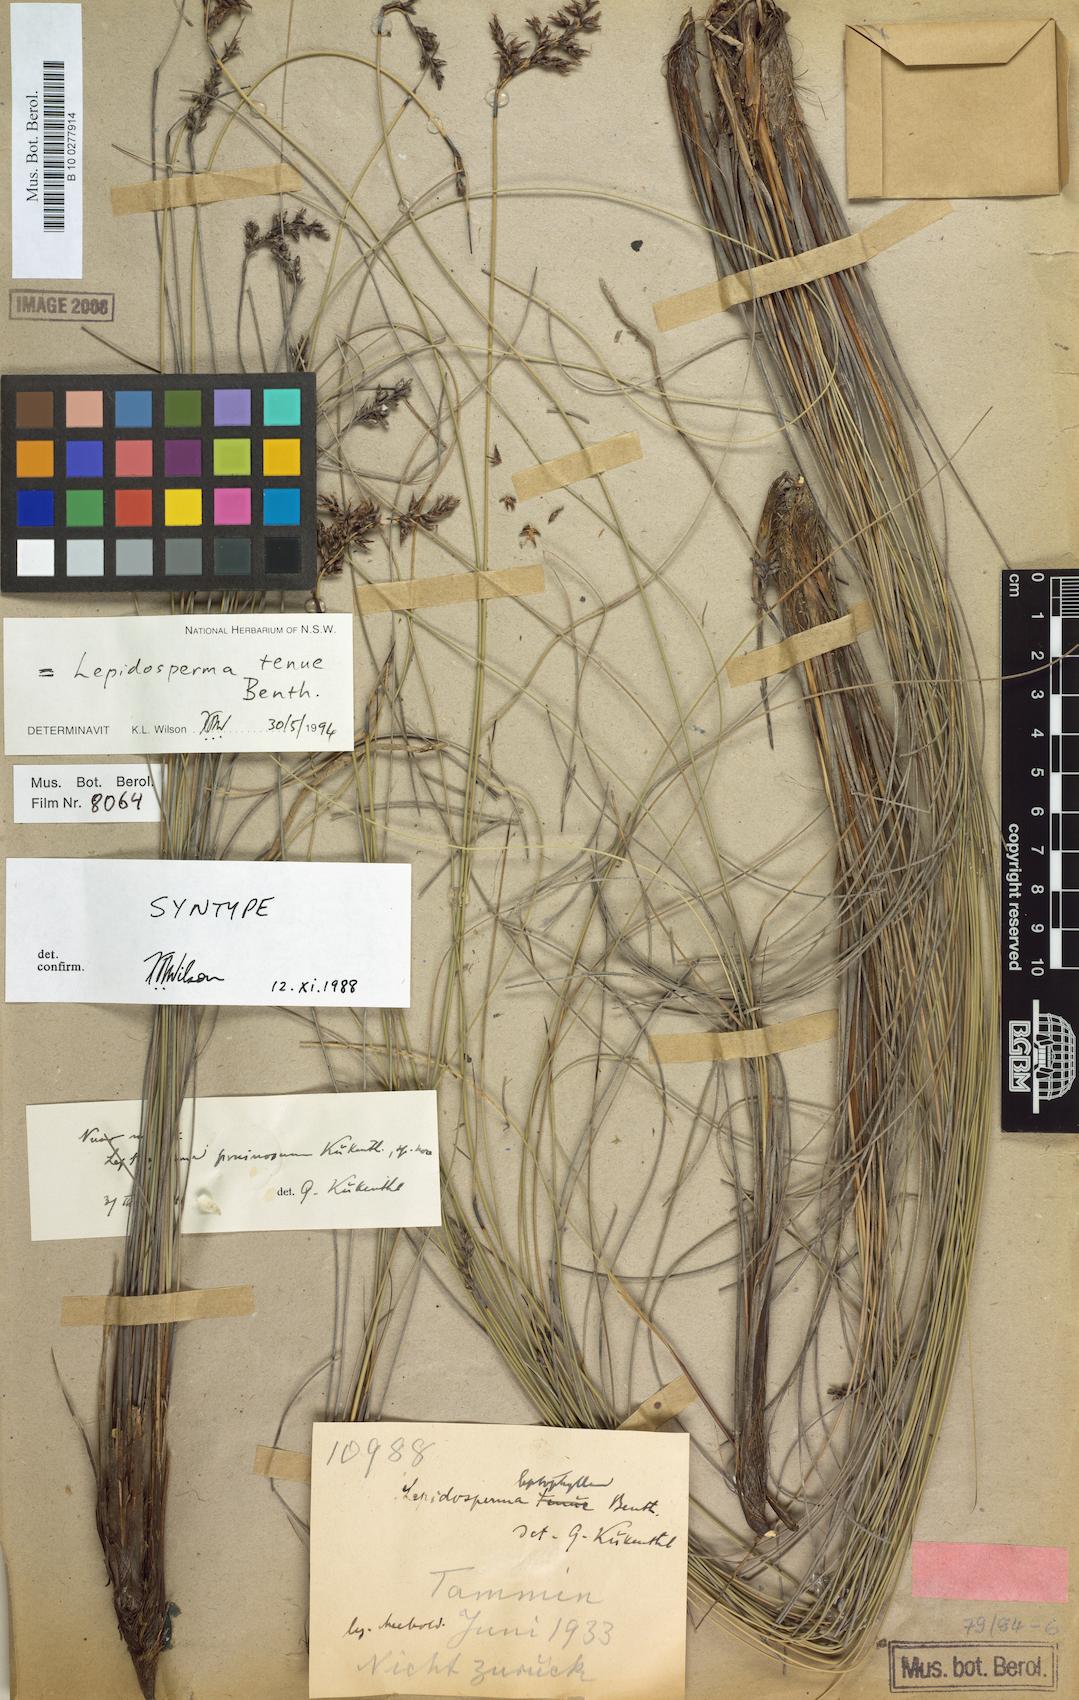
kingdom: Plantae
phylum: Tracheophyta
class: Liliopsida
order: Poales
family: Cyperaceae
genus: Lepidosperma
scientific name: Lepidosperma tenue
